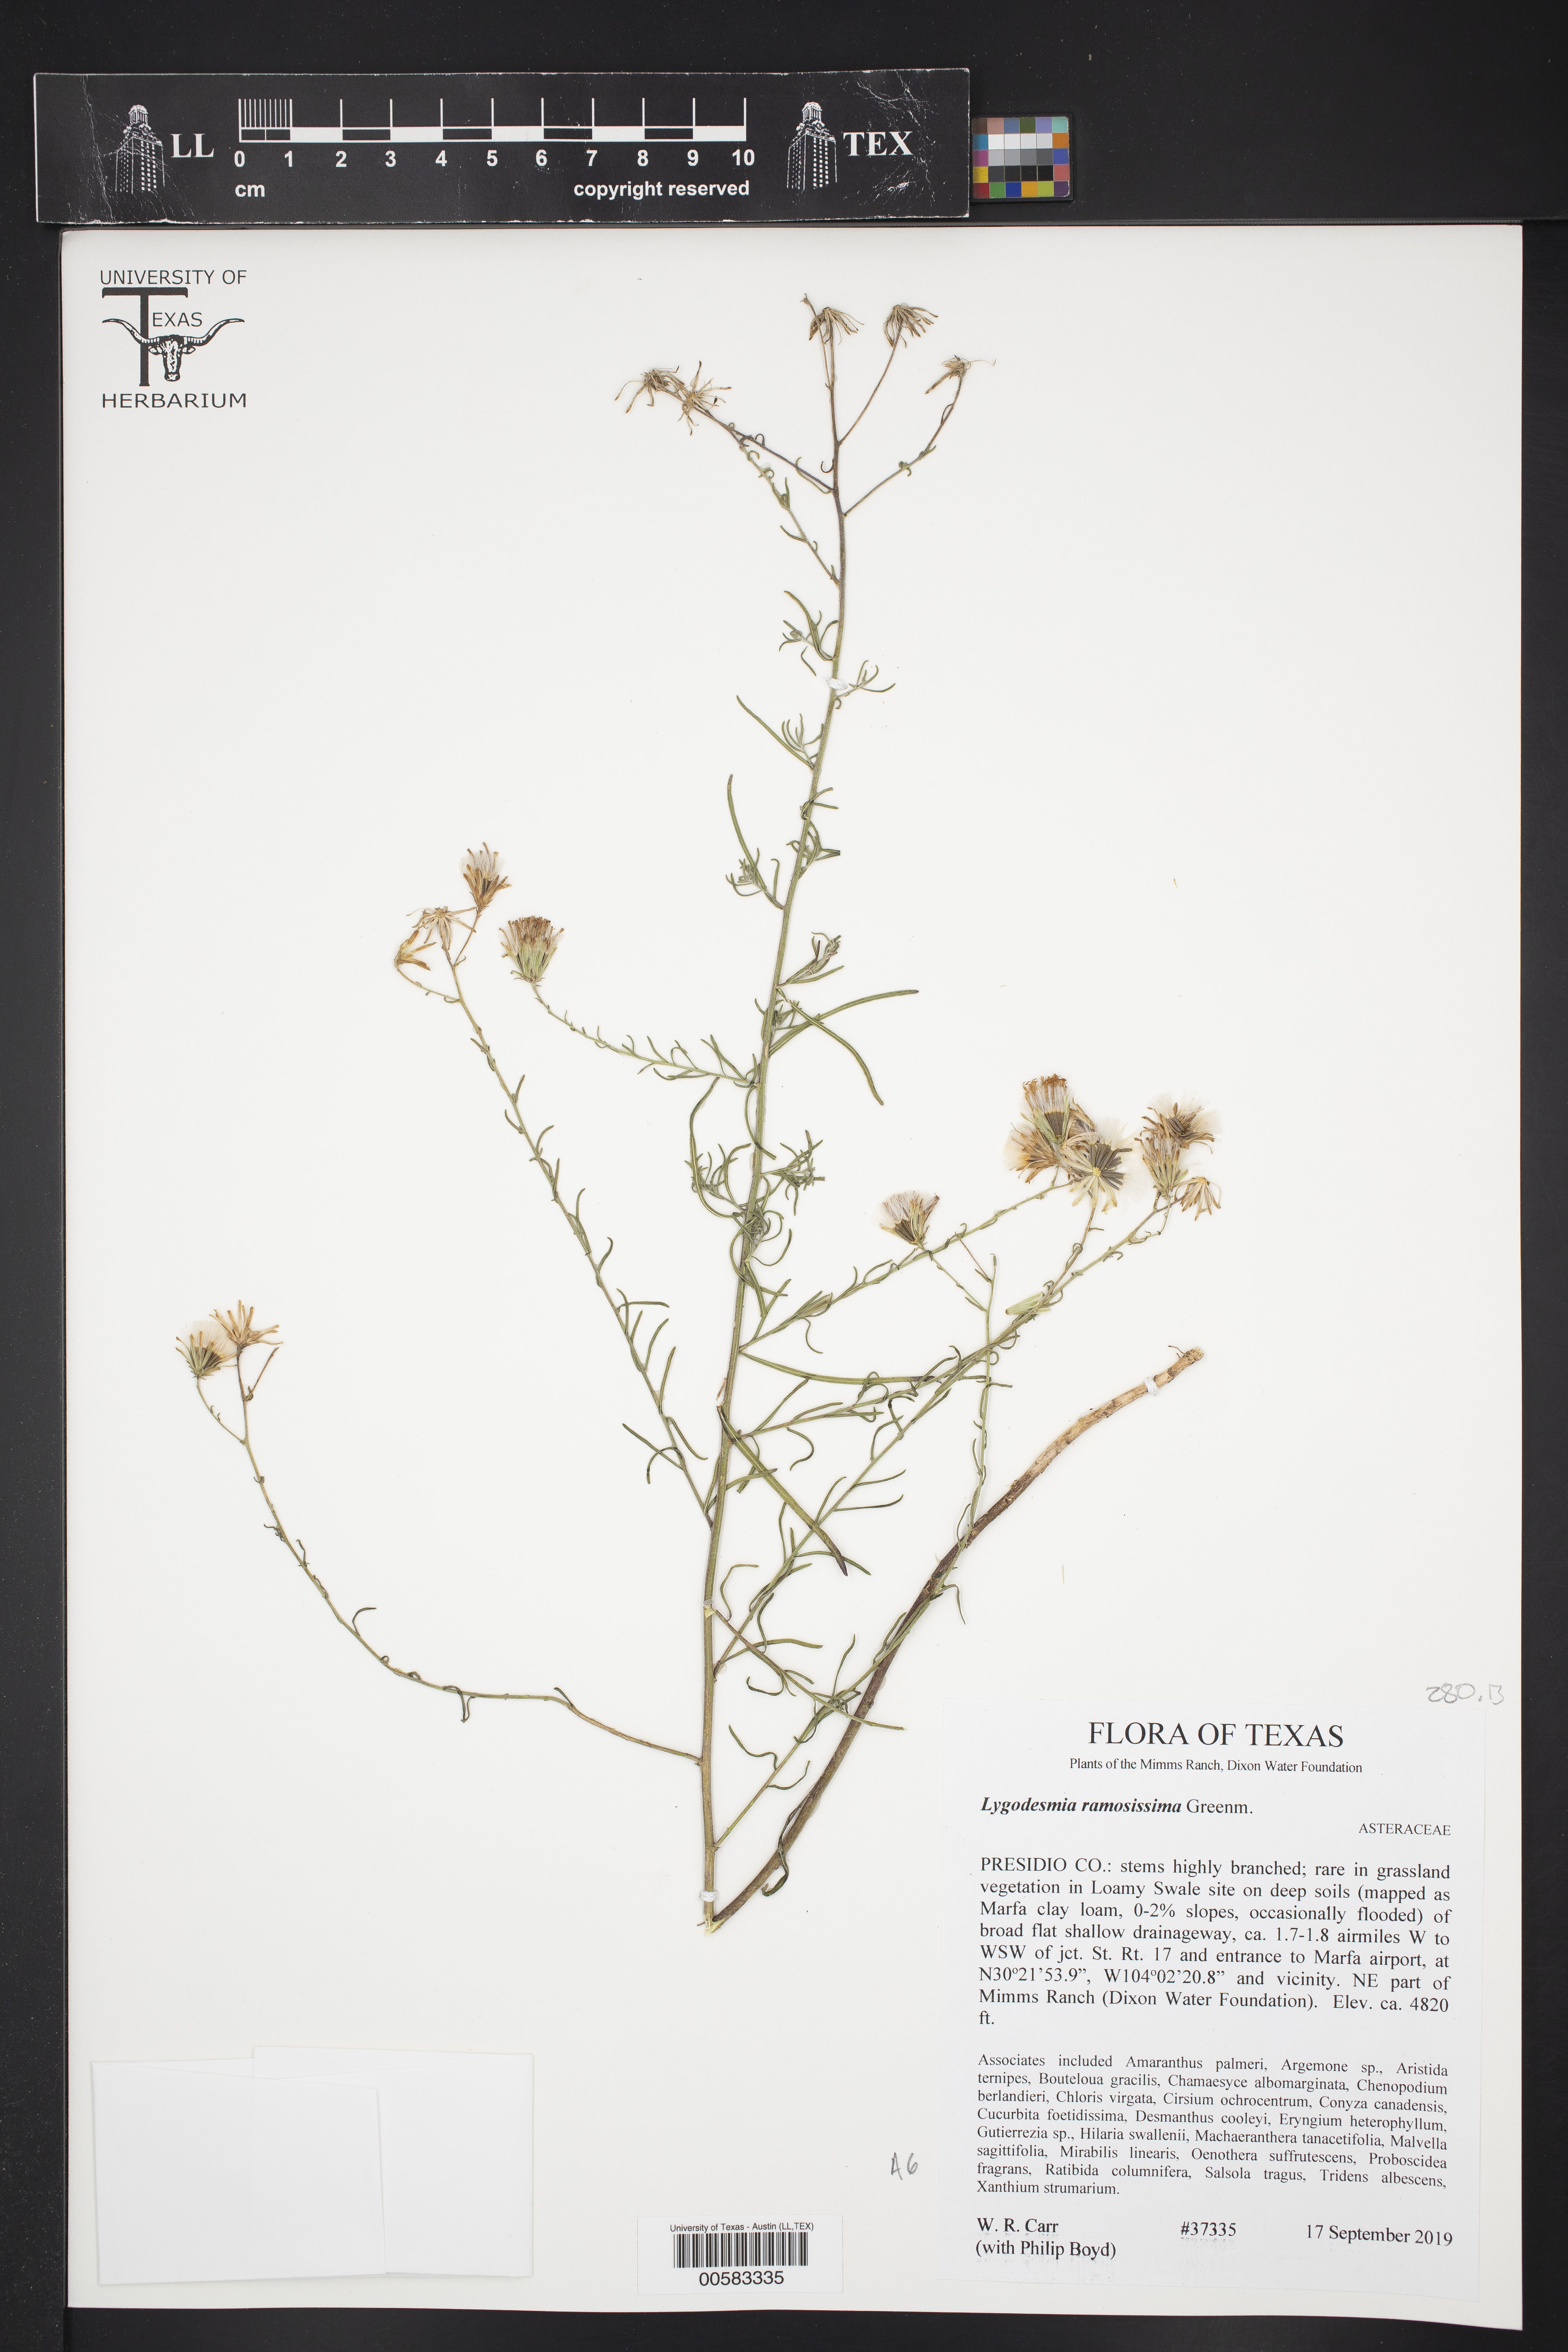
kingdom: Plantae
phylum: Tracheophyta
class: Magnoliopsida
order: Asterales
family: Asteraceae
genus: Lygodesmia
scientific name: Lygodesmia ramosissima
